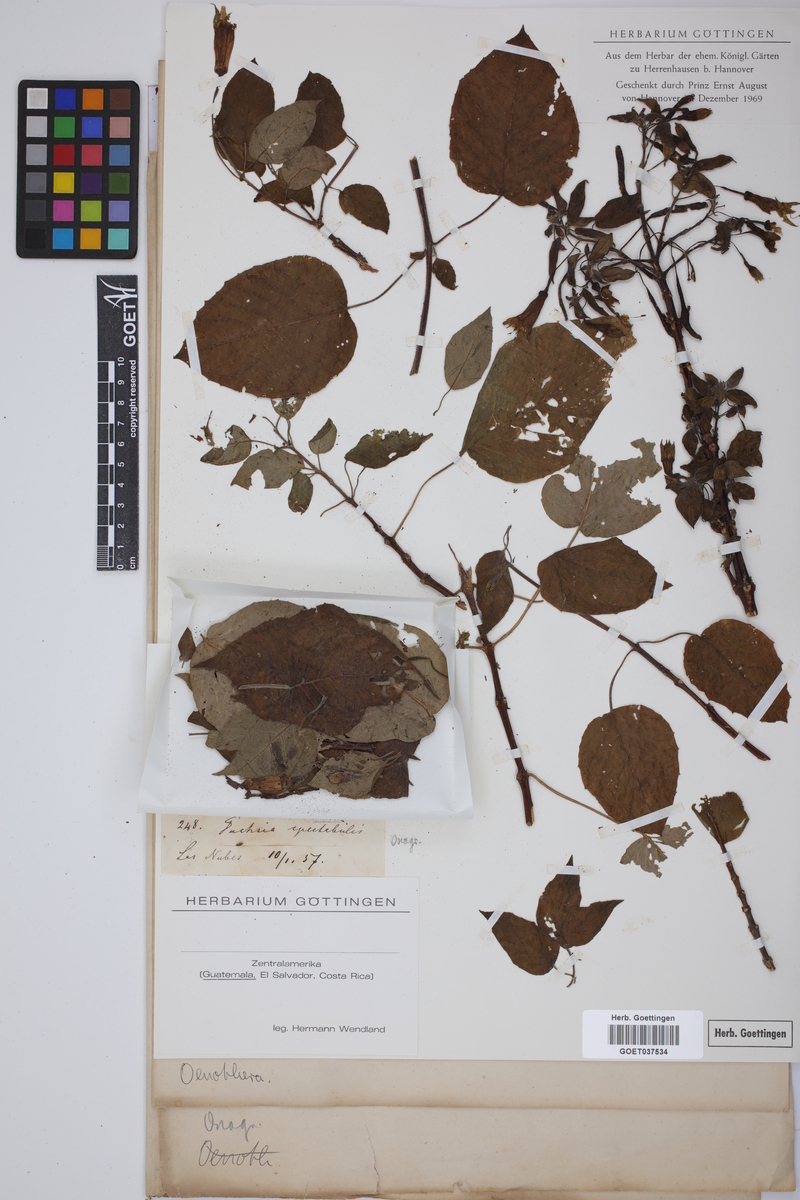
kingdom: Plantae
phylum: Tracheophyta
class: Magnoliopsida
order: Myrtales
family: Onagraceae
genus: Fuchsia
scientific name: Fuchsia macrostigma
